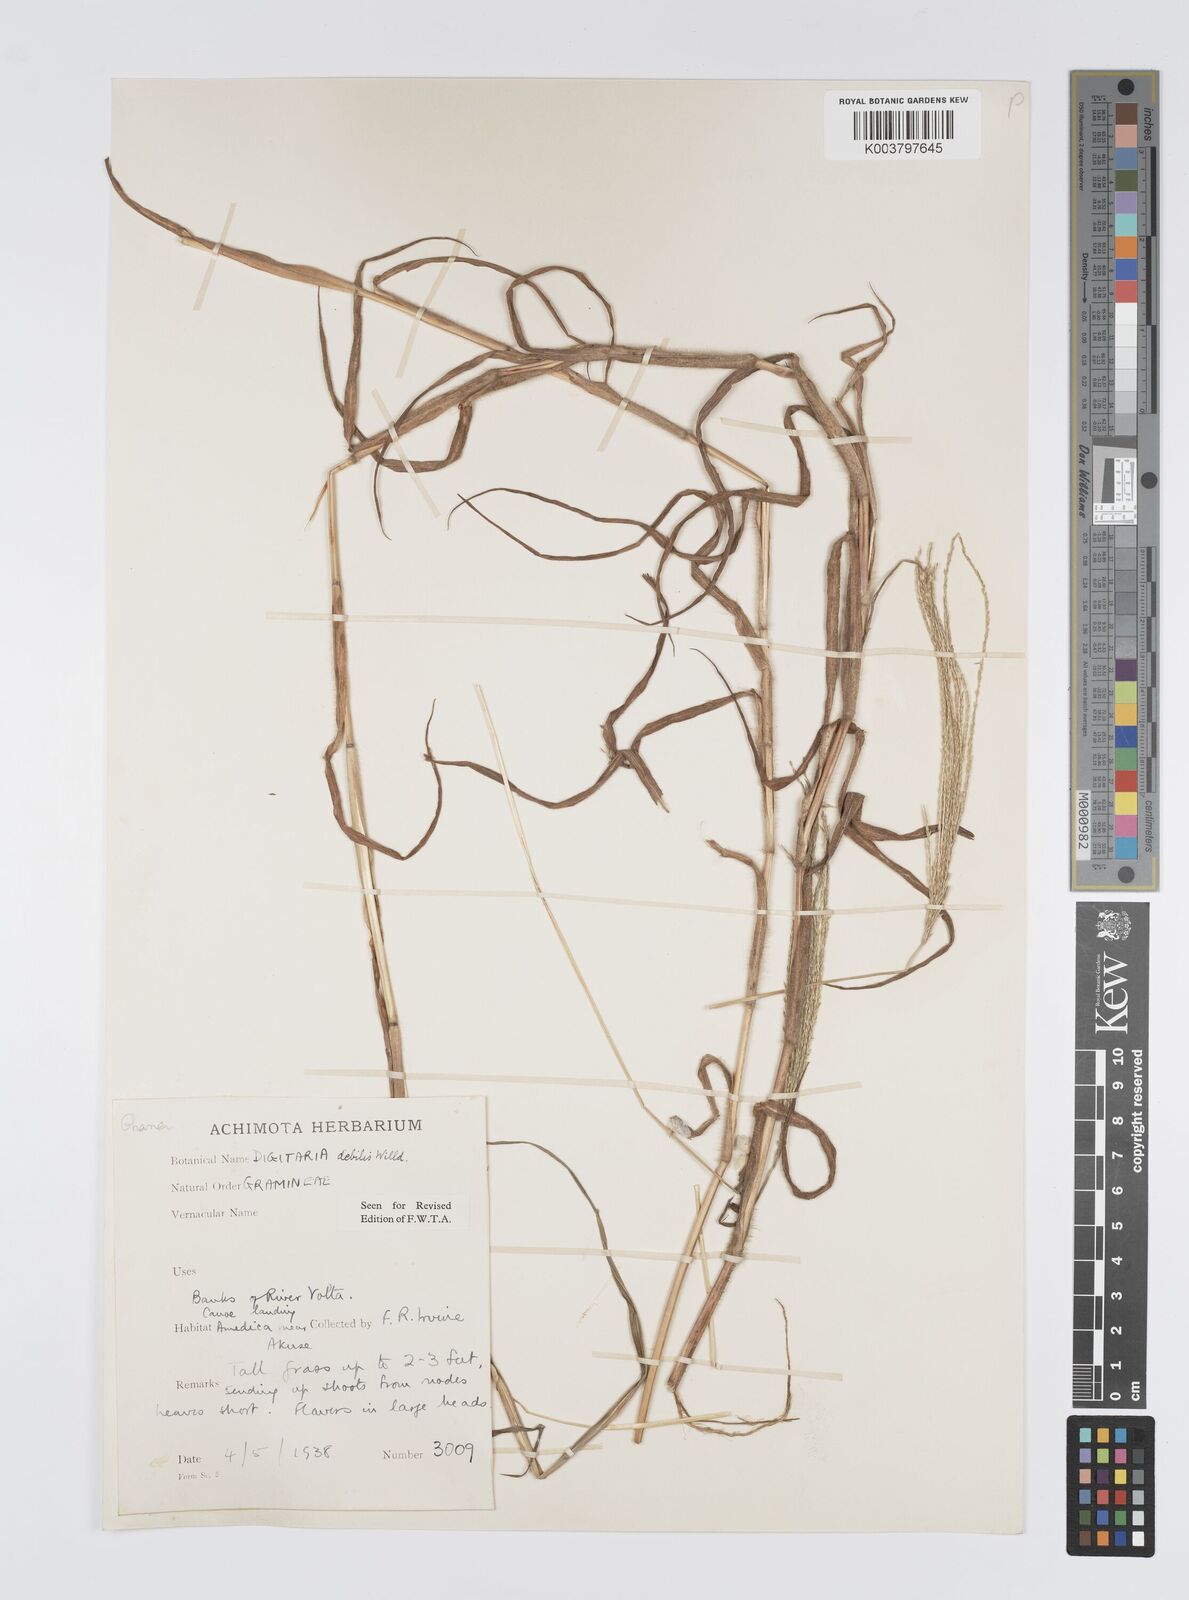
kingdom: Plantae
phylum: Tracheophyta
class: Liliopsida
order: Poales
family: Poaceae
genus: Digitaria
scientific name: Digitaria debilis
